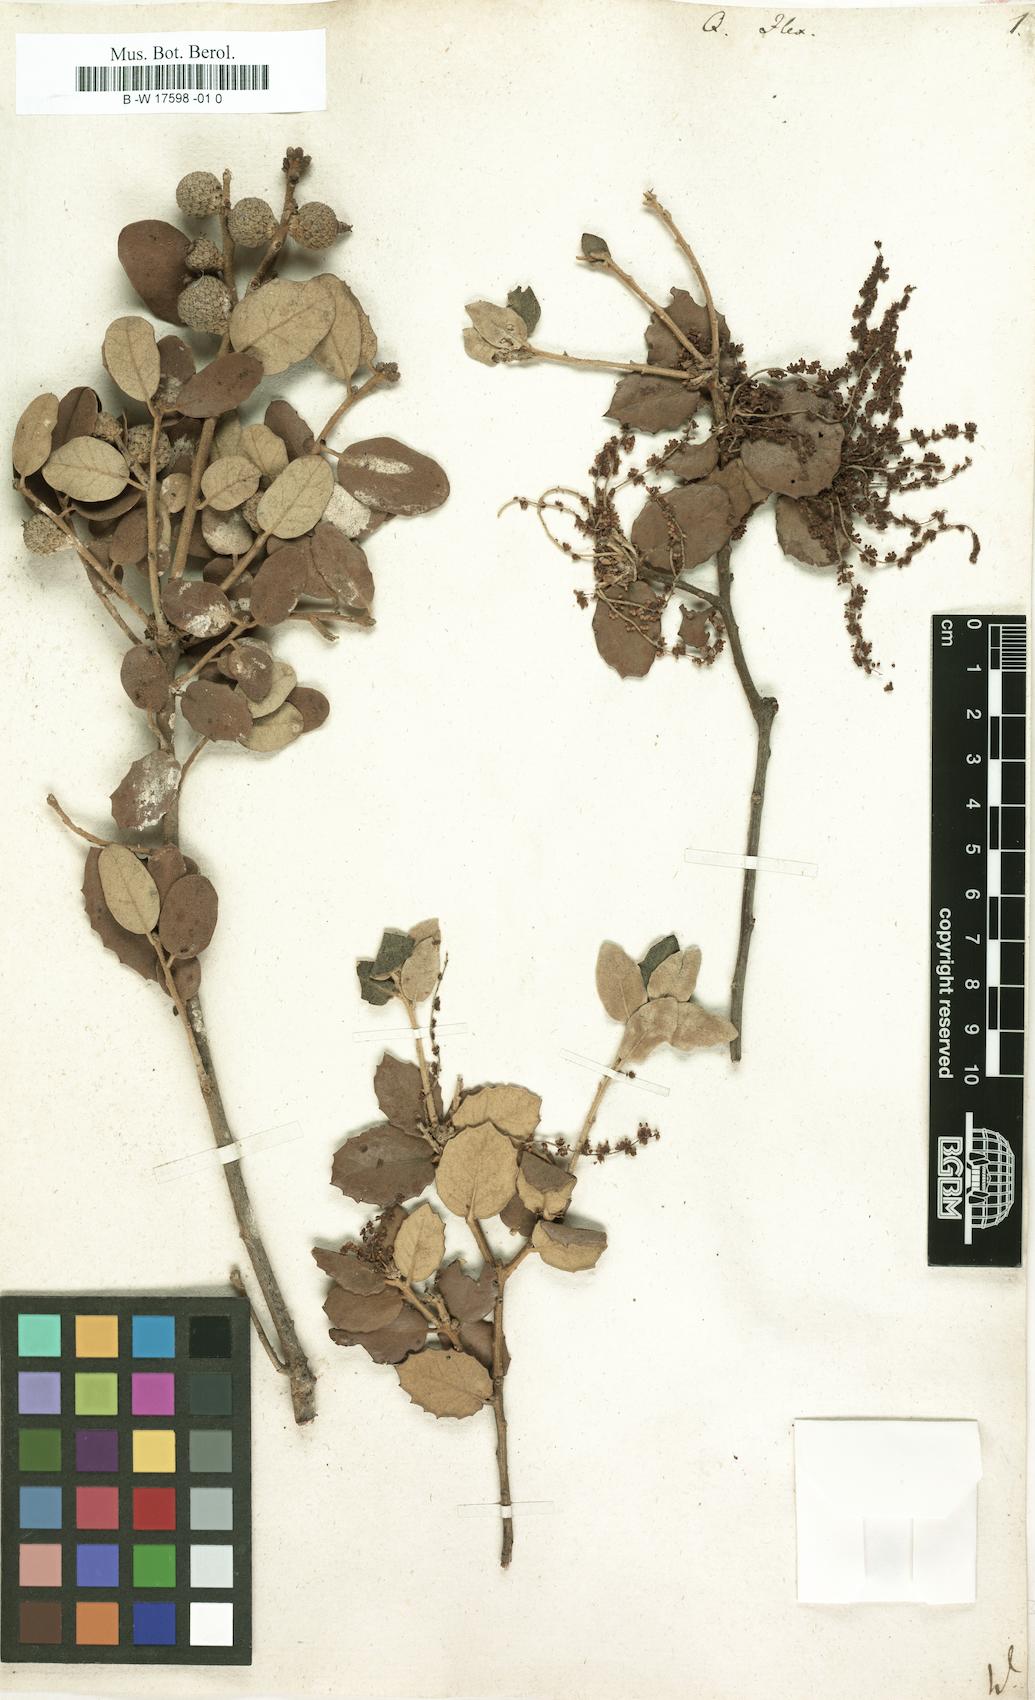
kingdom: Plantae
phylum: Tracheophyta
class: Magnoliopsida
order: Fagales
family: Fagaceae
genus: Quercus
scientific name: Quercus ilex
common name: Evergreen oak
